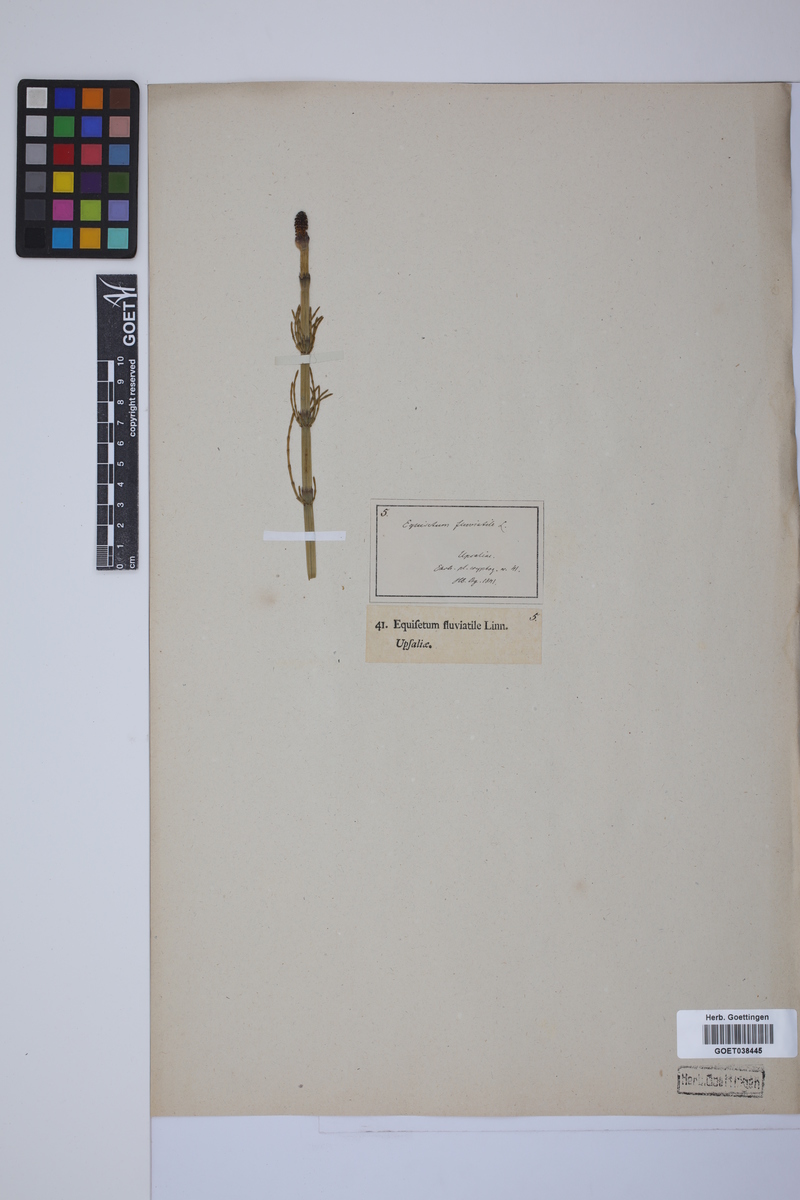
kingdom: Plantae
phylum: Tracheophyta
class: Polypodiopsida
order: Equisetales
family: Equisetaceae
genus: Equisetum
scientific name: Equisetum fluviatile
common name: Water horsetail
